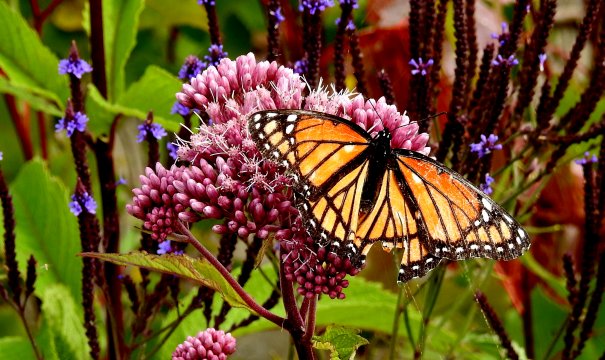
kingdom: Animalia
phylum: Arthropoda
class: Insecta
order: Lepidoptera
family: Nymphalidae
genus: Limenitis
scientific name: Limenitis archippus
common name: Viceroy
